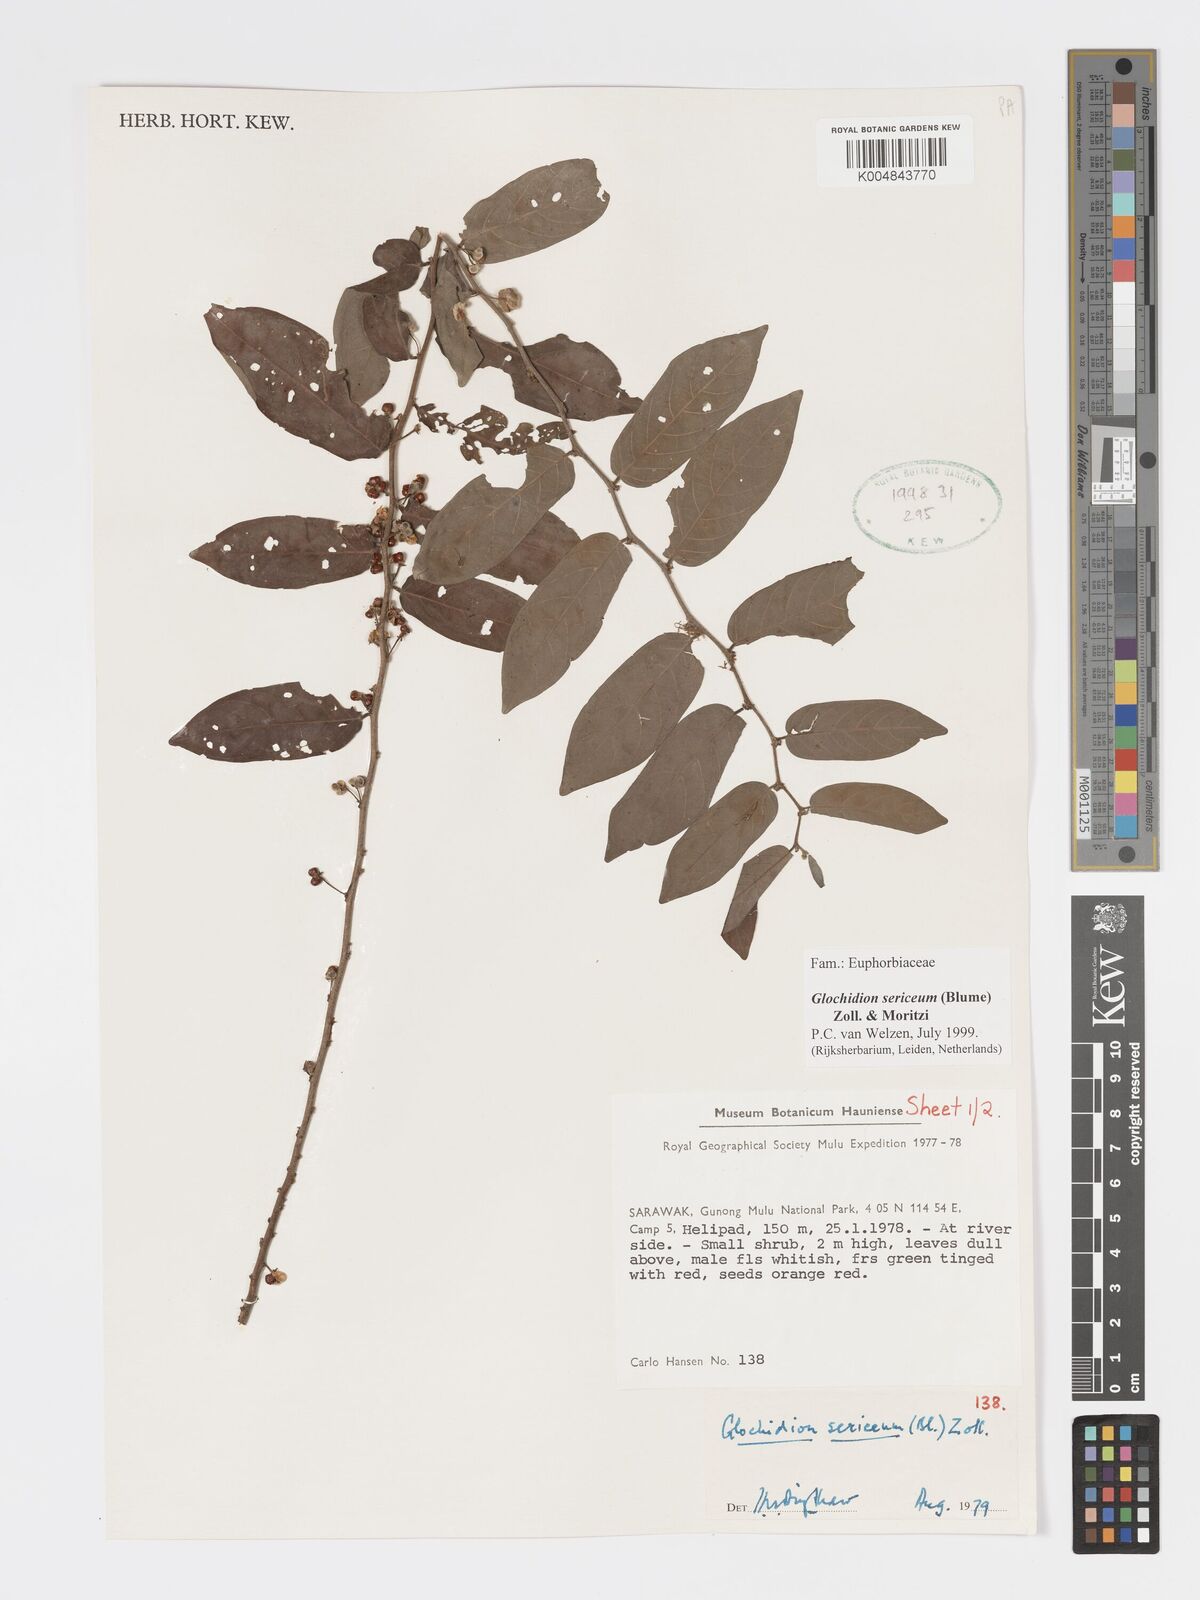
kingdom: Plantae
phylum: Tracheophyta
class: Magnoliopsida
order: Malpighiales
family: Phyllanthaceae
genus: Glochidion
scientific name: Glochidion sericeum
